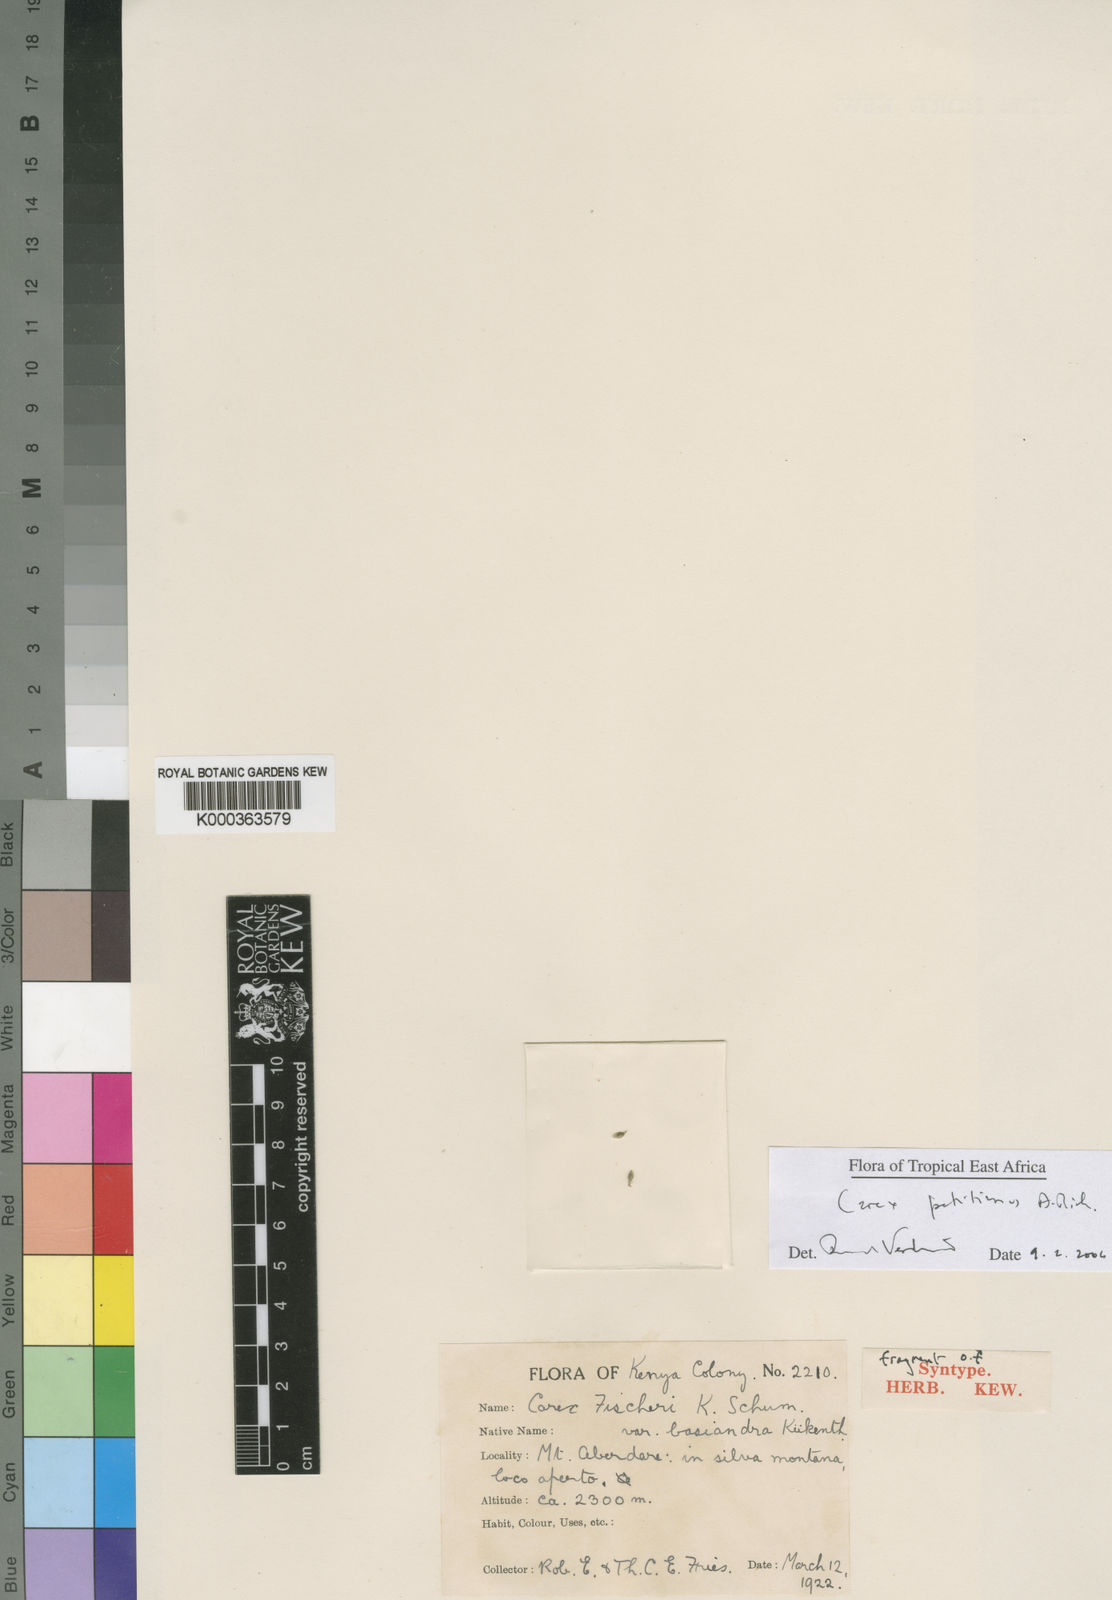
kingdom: Plantae
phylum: Tracheophyta
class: Liliopsida
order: Poales
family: Cyperaceae
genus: Carex
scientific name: Carex fischeri
